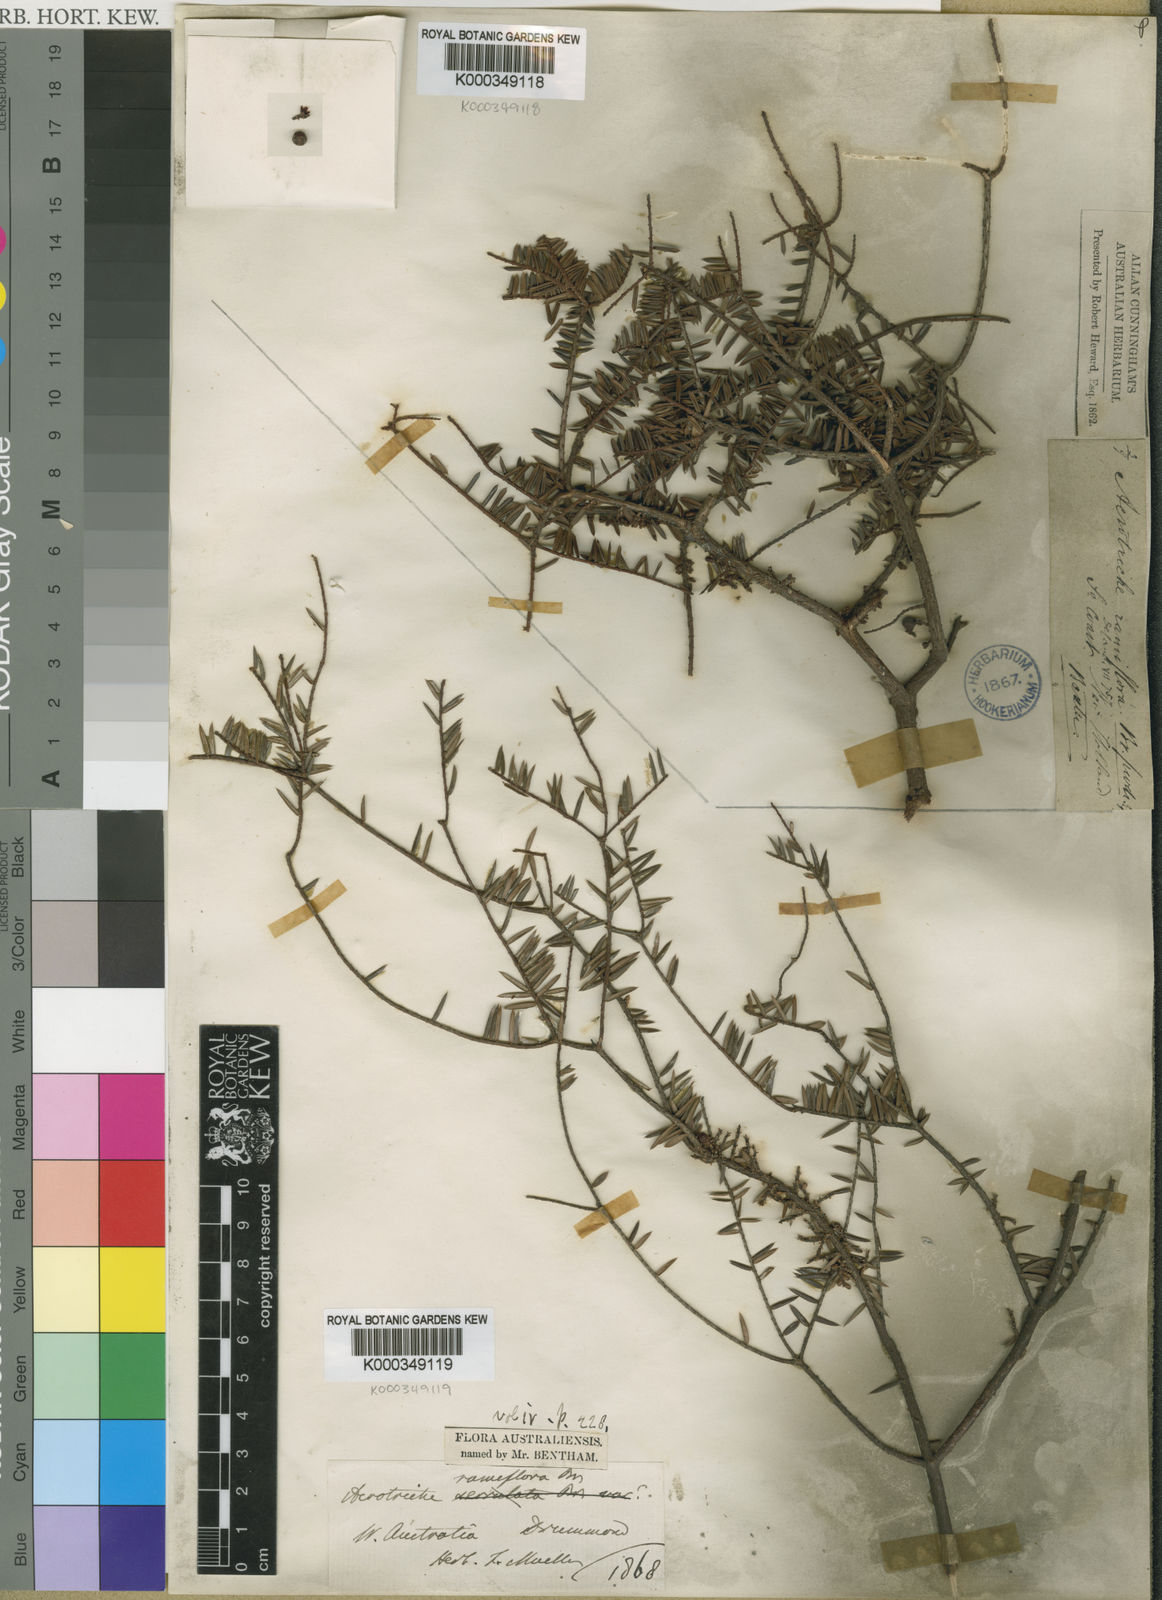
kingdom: Plantae
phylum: Tracheophyta
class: Magnoliopsida
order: Ericales
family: Ericaceae
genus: Acrotriche
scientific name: Acrotriche ramiflora
